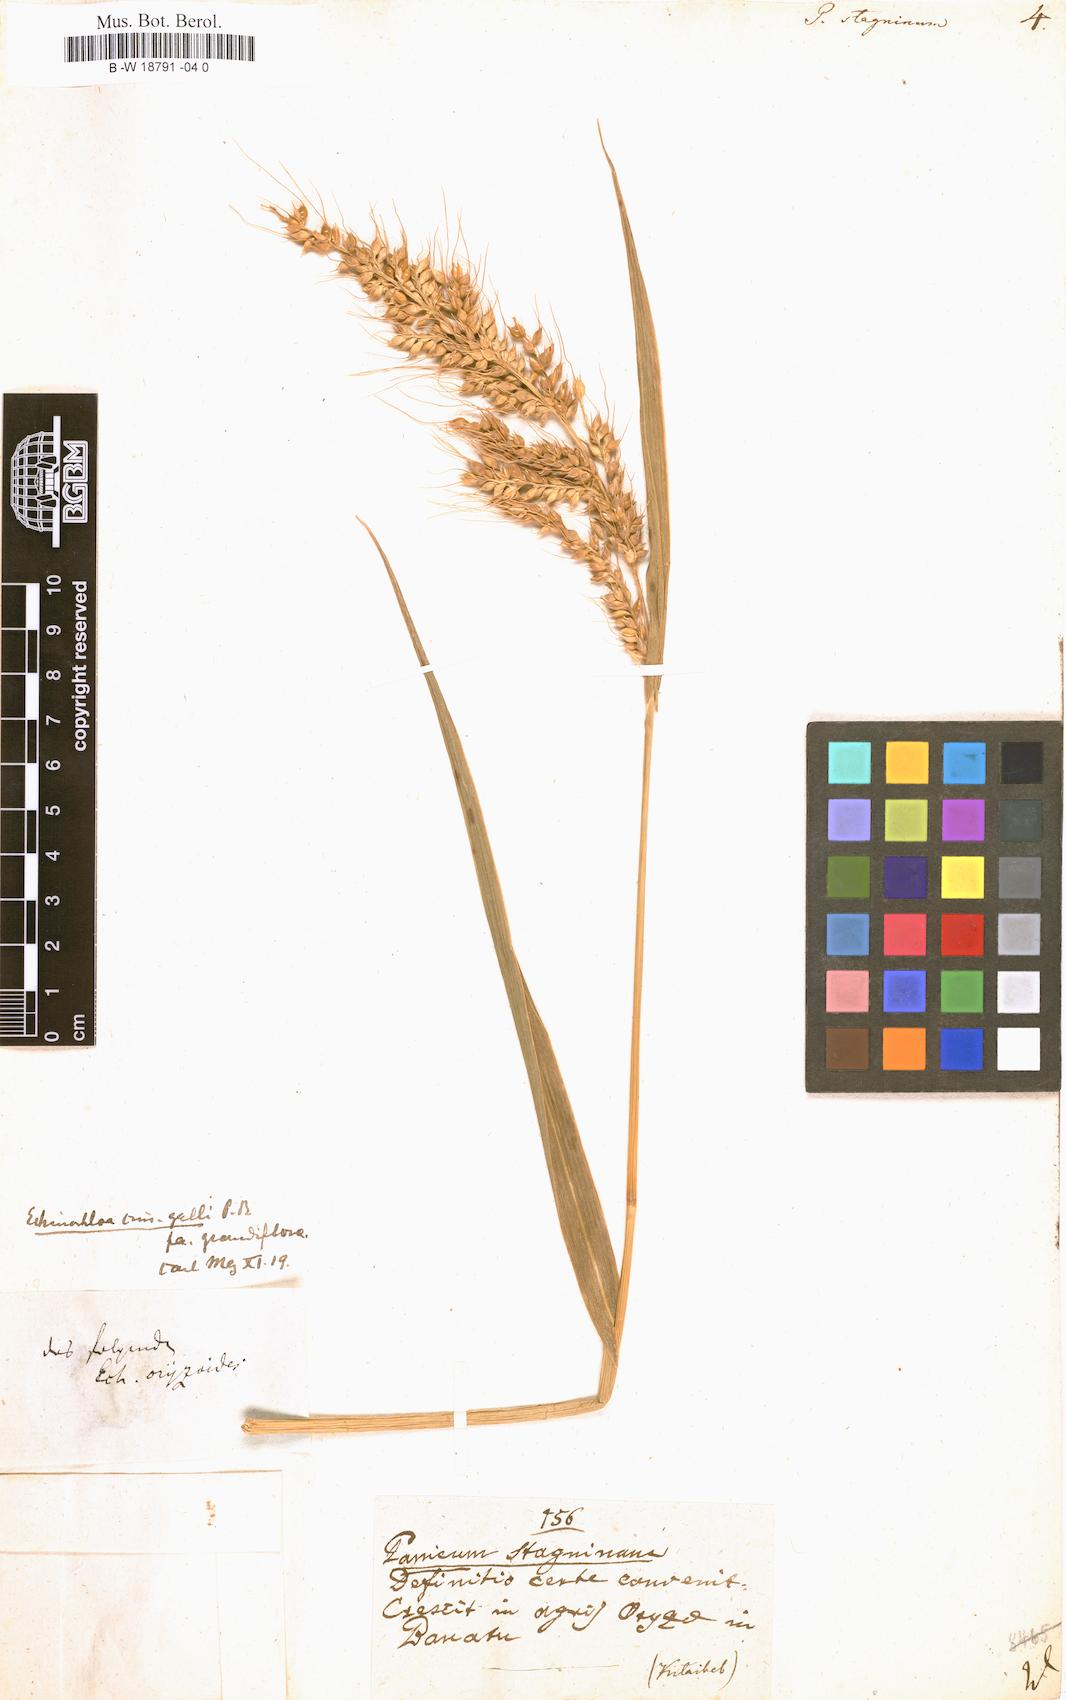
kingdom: Plantae
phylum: Tracheophyta
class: Liliopsida
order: Poales
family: Poaceae
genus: Echinochloa
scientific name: Echinochloa stagnina
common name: Burgu grass
